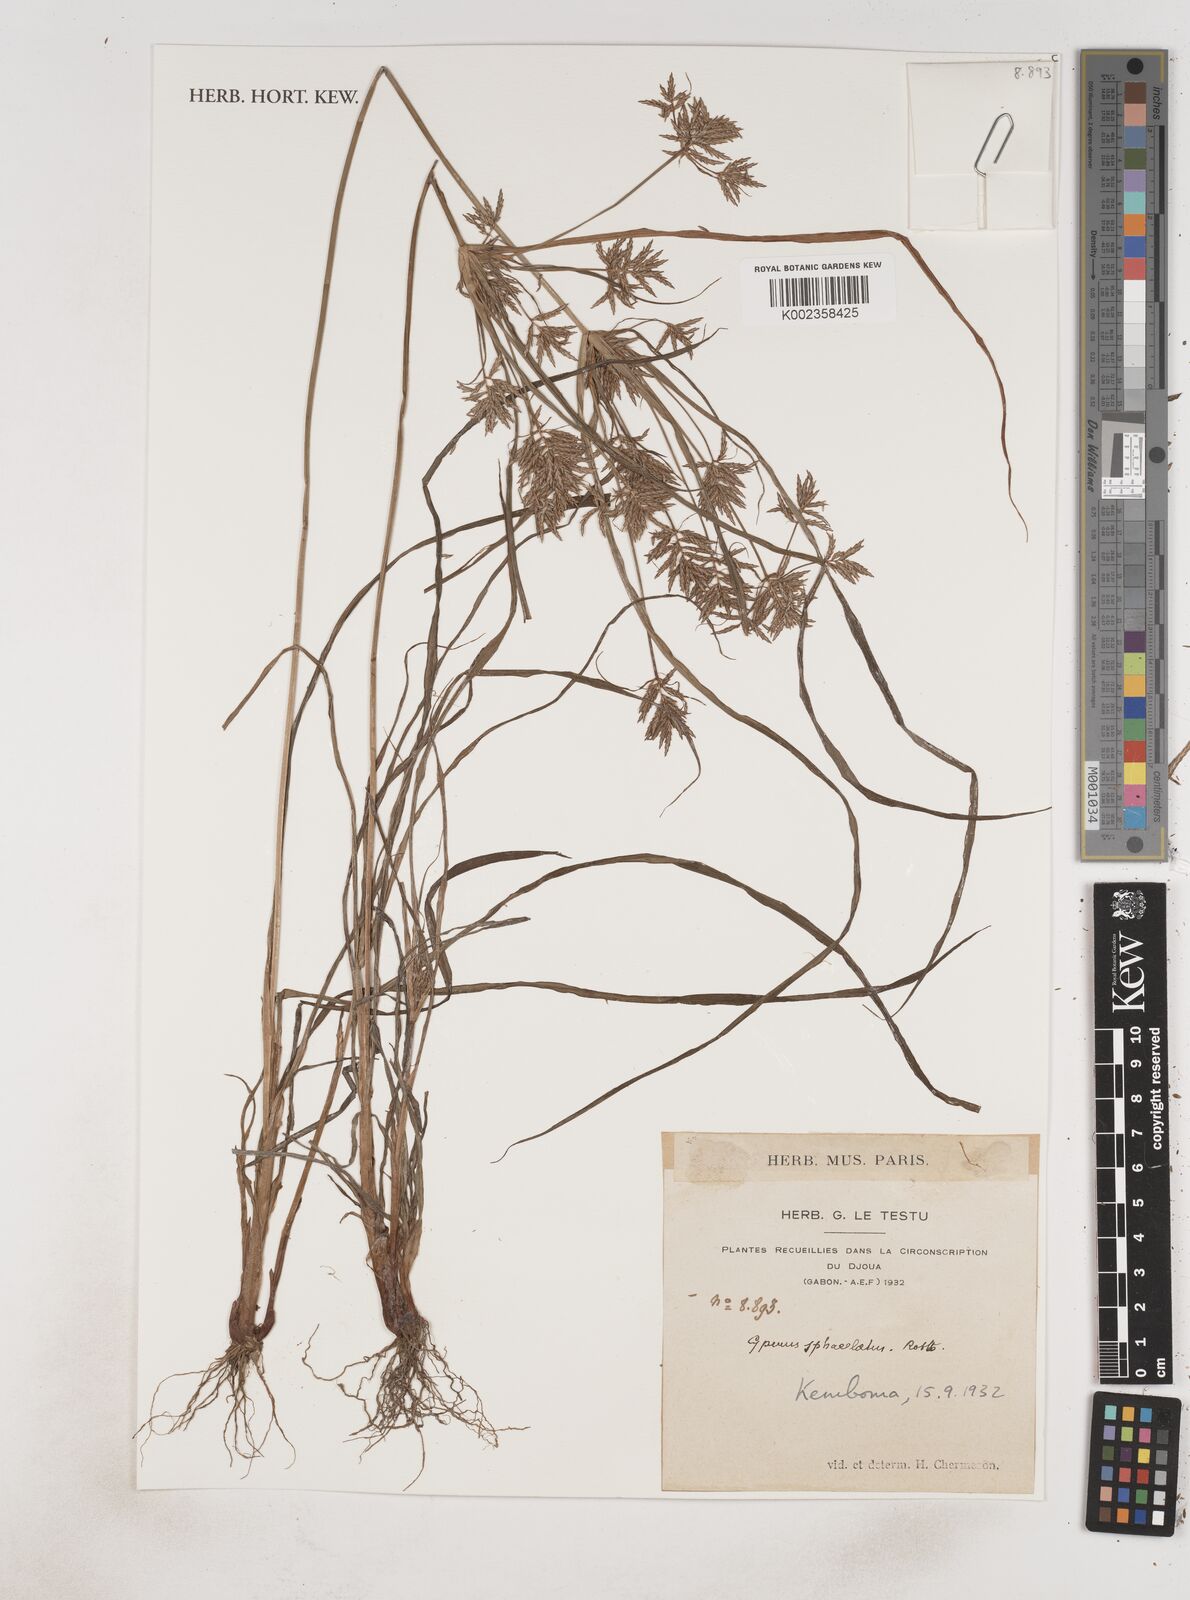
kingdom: Plantae
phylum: Tracheophyta
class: Liliopsida
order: Poales
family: Cyperaceae
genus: Cyperus
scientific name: Cyperus sphacelatus
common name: Roadside flatsedge
